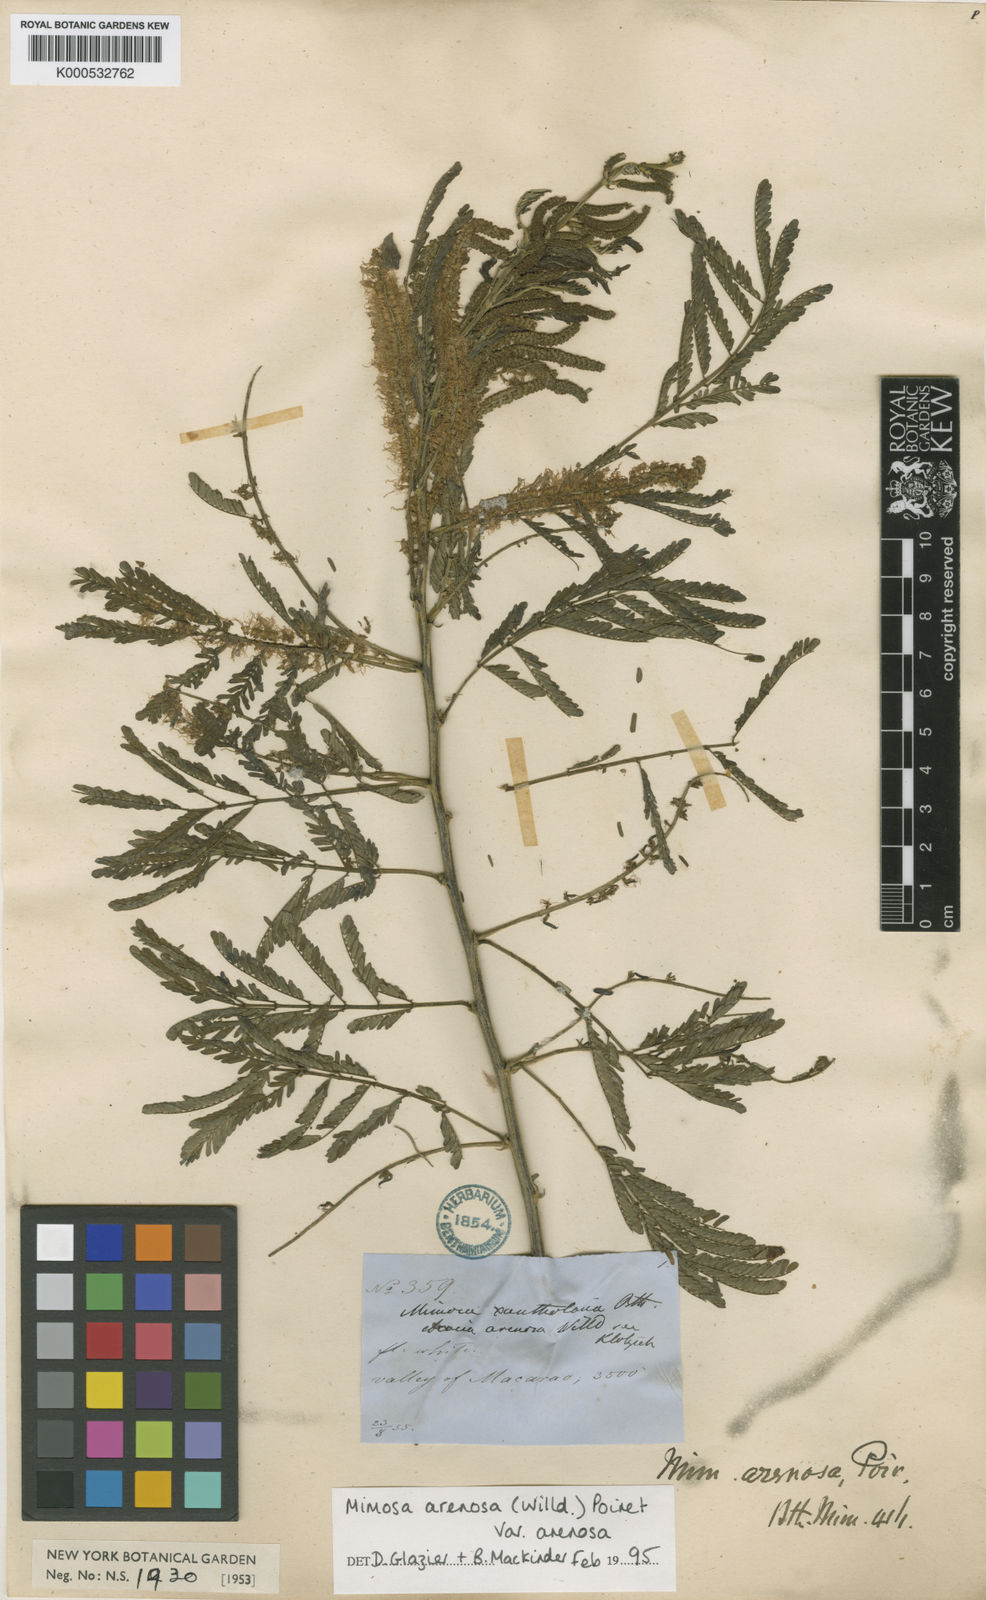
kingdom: Plantae
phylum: Tracheophyta
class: Magnoliopsida
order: Fabales
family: Fabaceae
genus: Mimosa
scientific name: Mimosa arenosa
